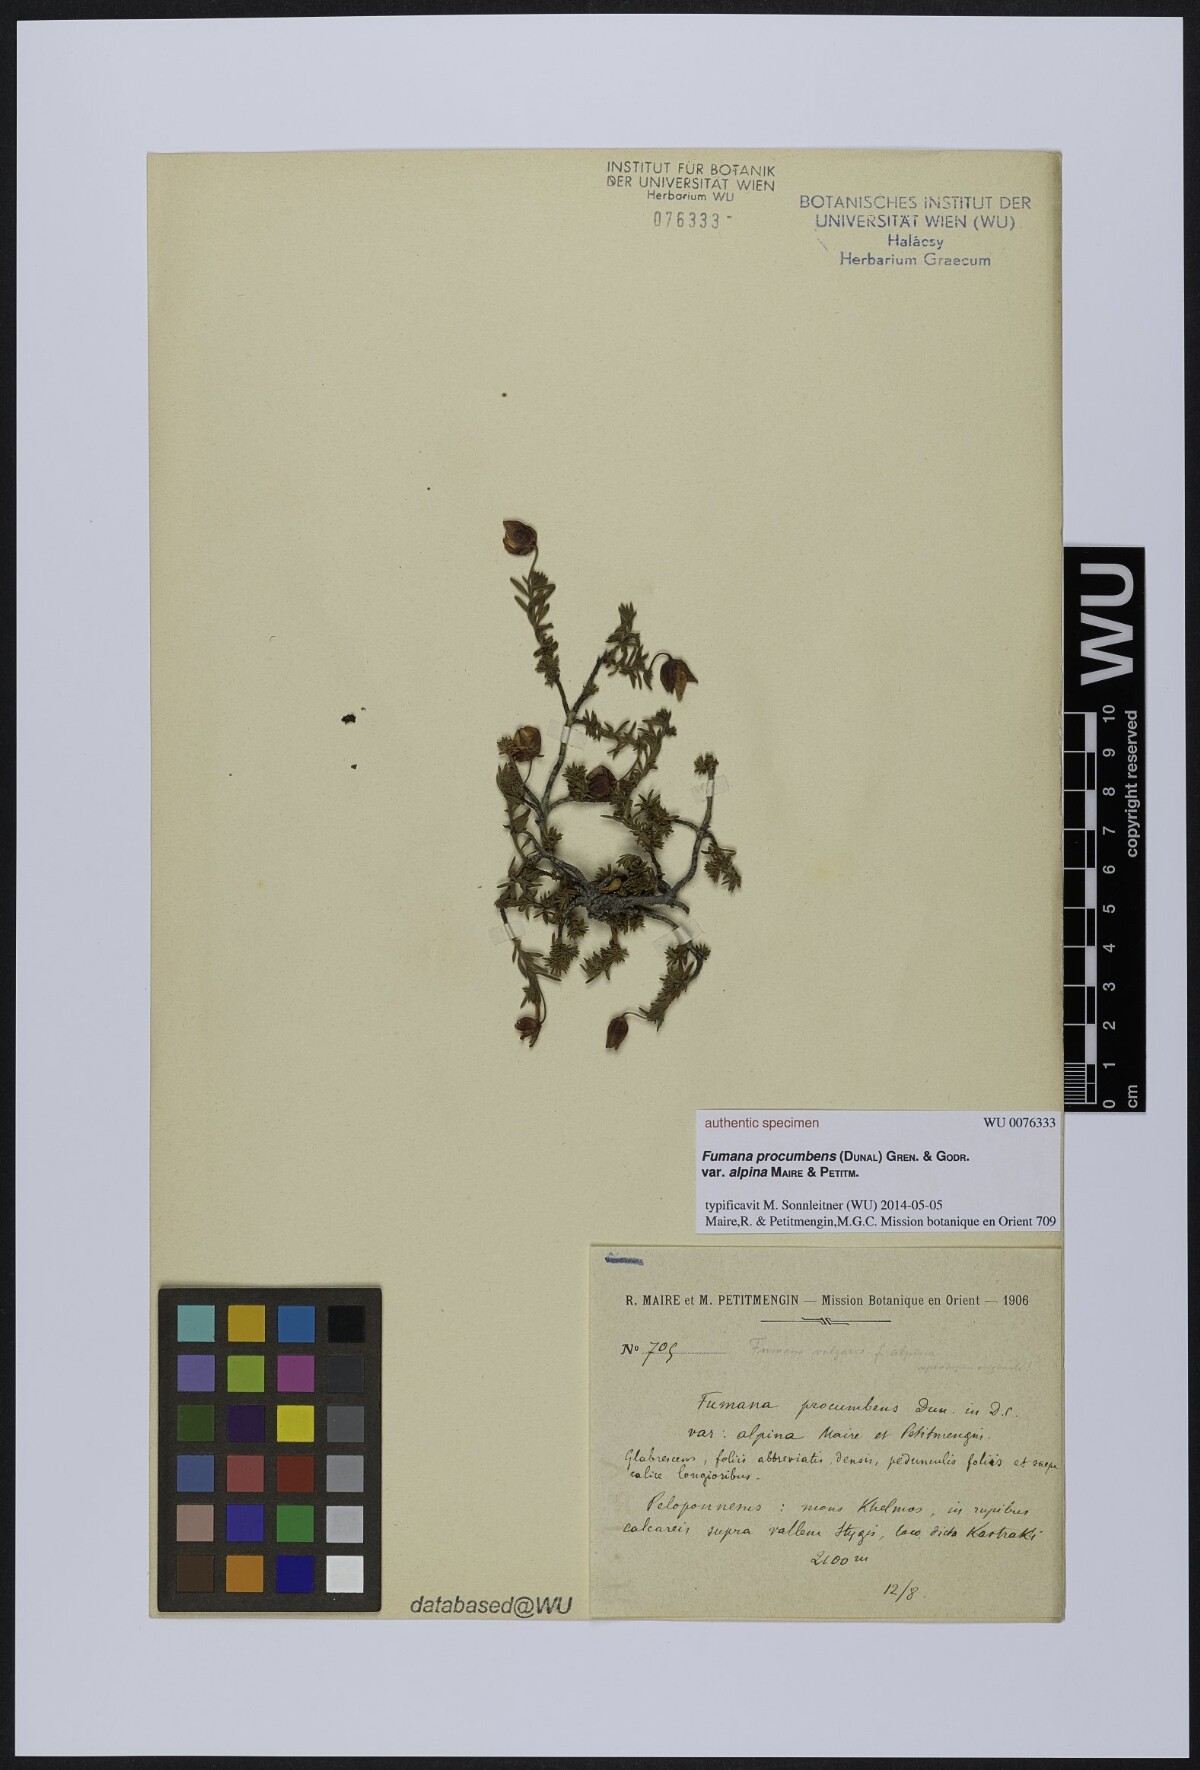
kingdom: Plantae
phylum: Tracheophyta
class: Magnoliopsida
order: Malvales
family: Cistaceae
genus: Fumana
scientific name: Fumana procumbens
